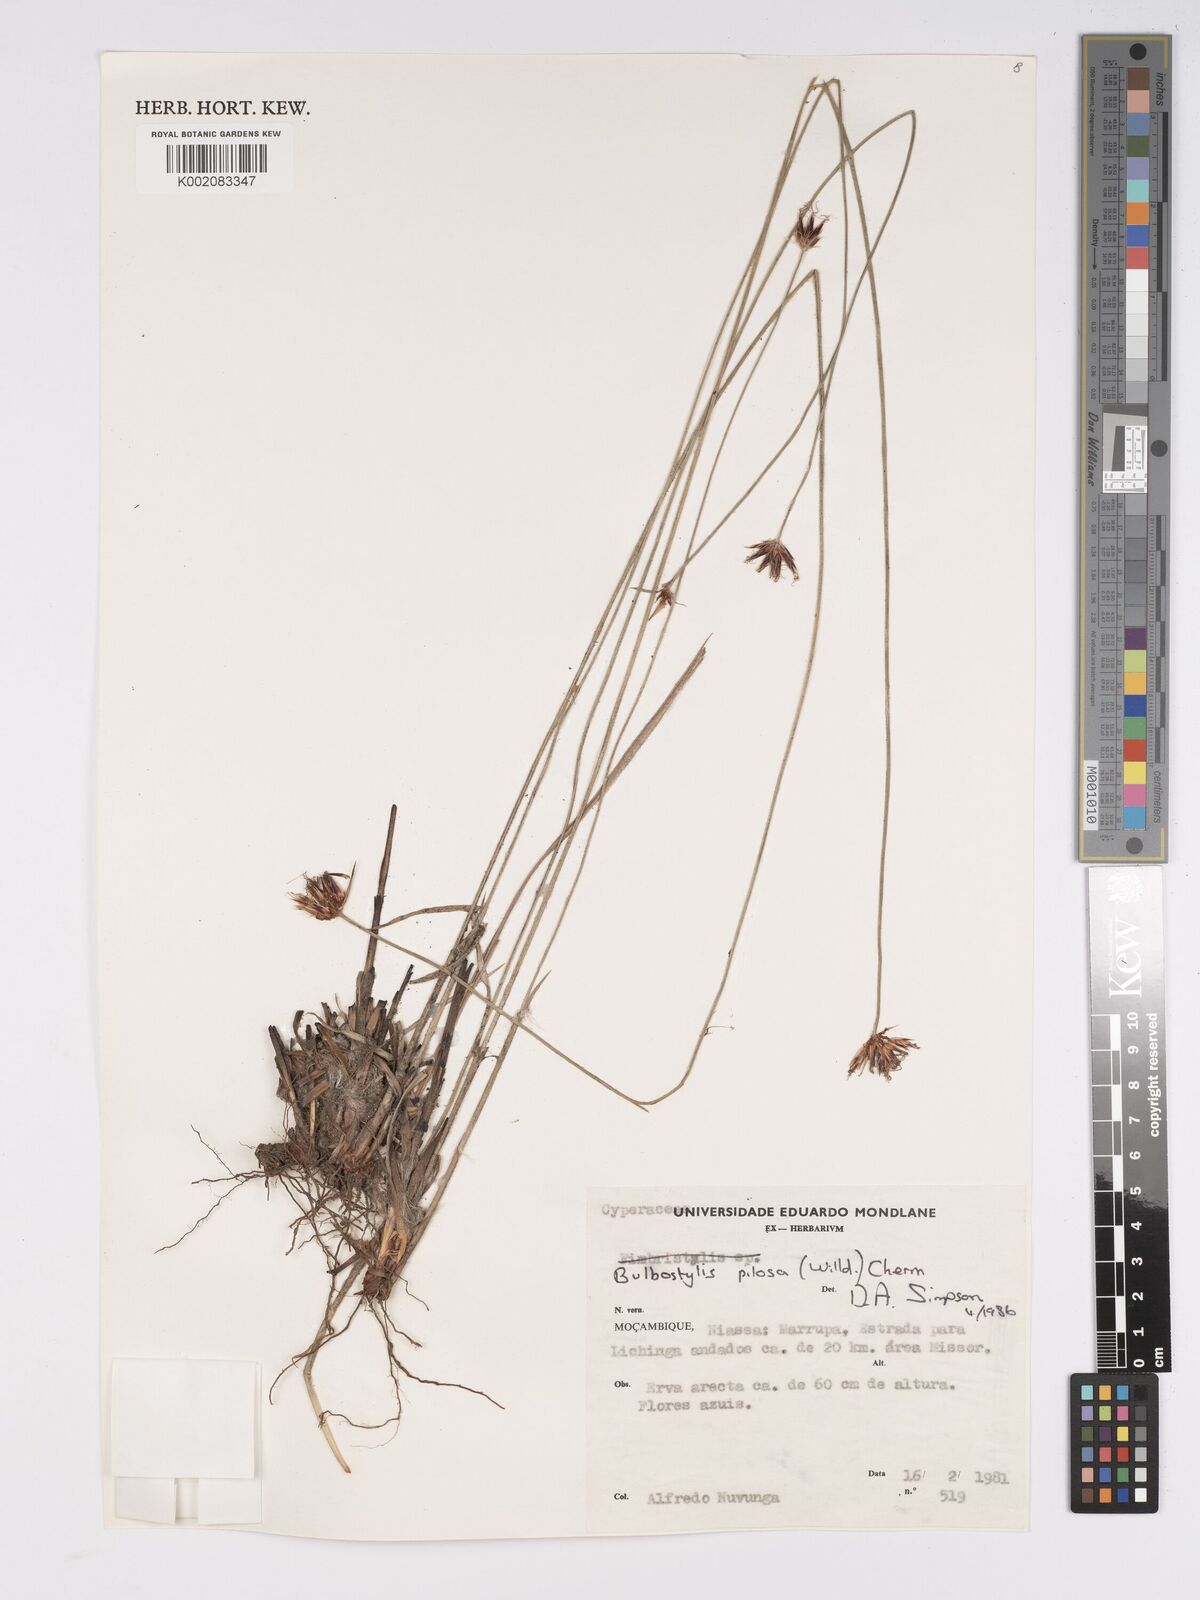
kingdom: Plantae
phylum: Tracheophyta
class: Liliopsida
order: Poales
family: Cyperaceae
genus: Bulbostylis
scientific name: Bulbostylis pilosa
